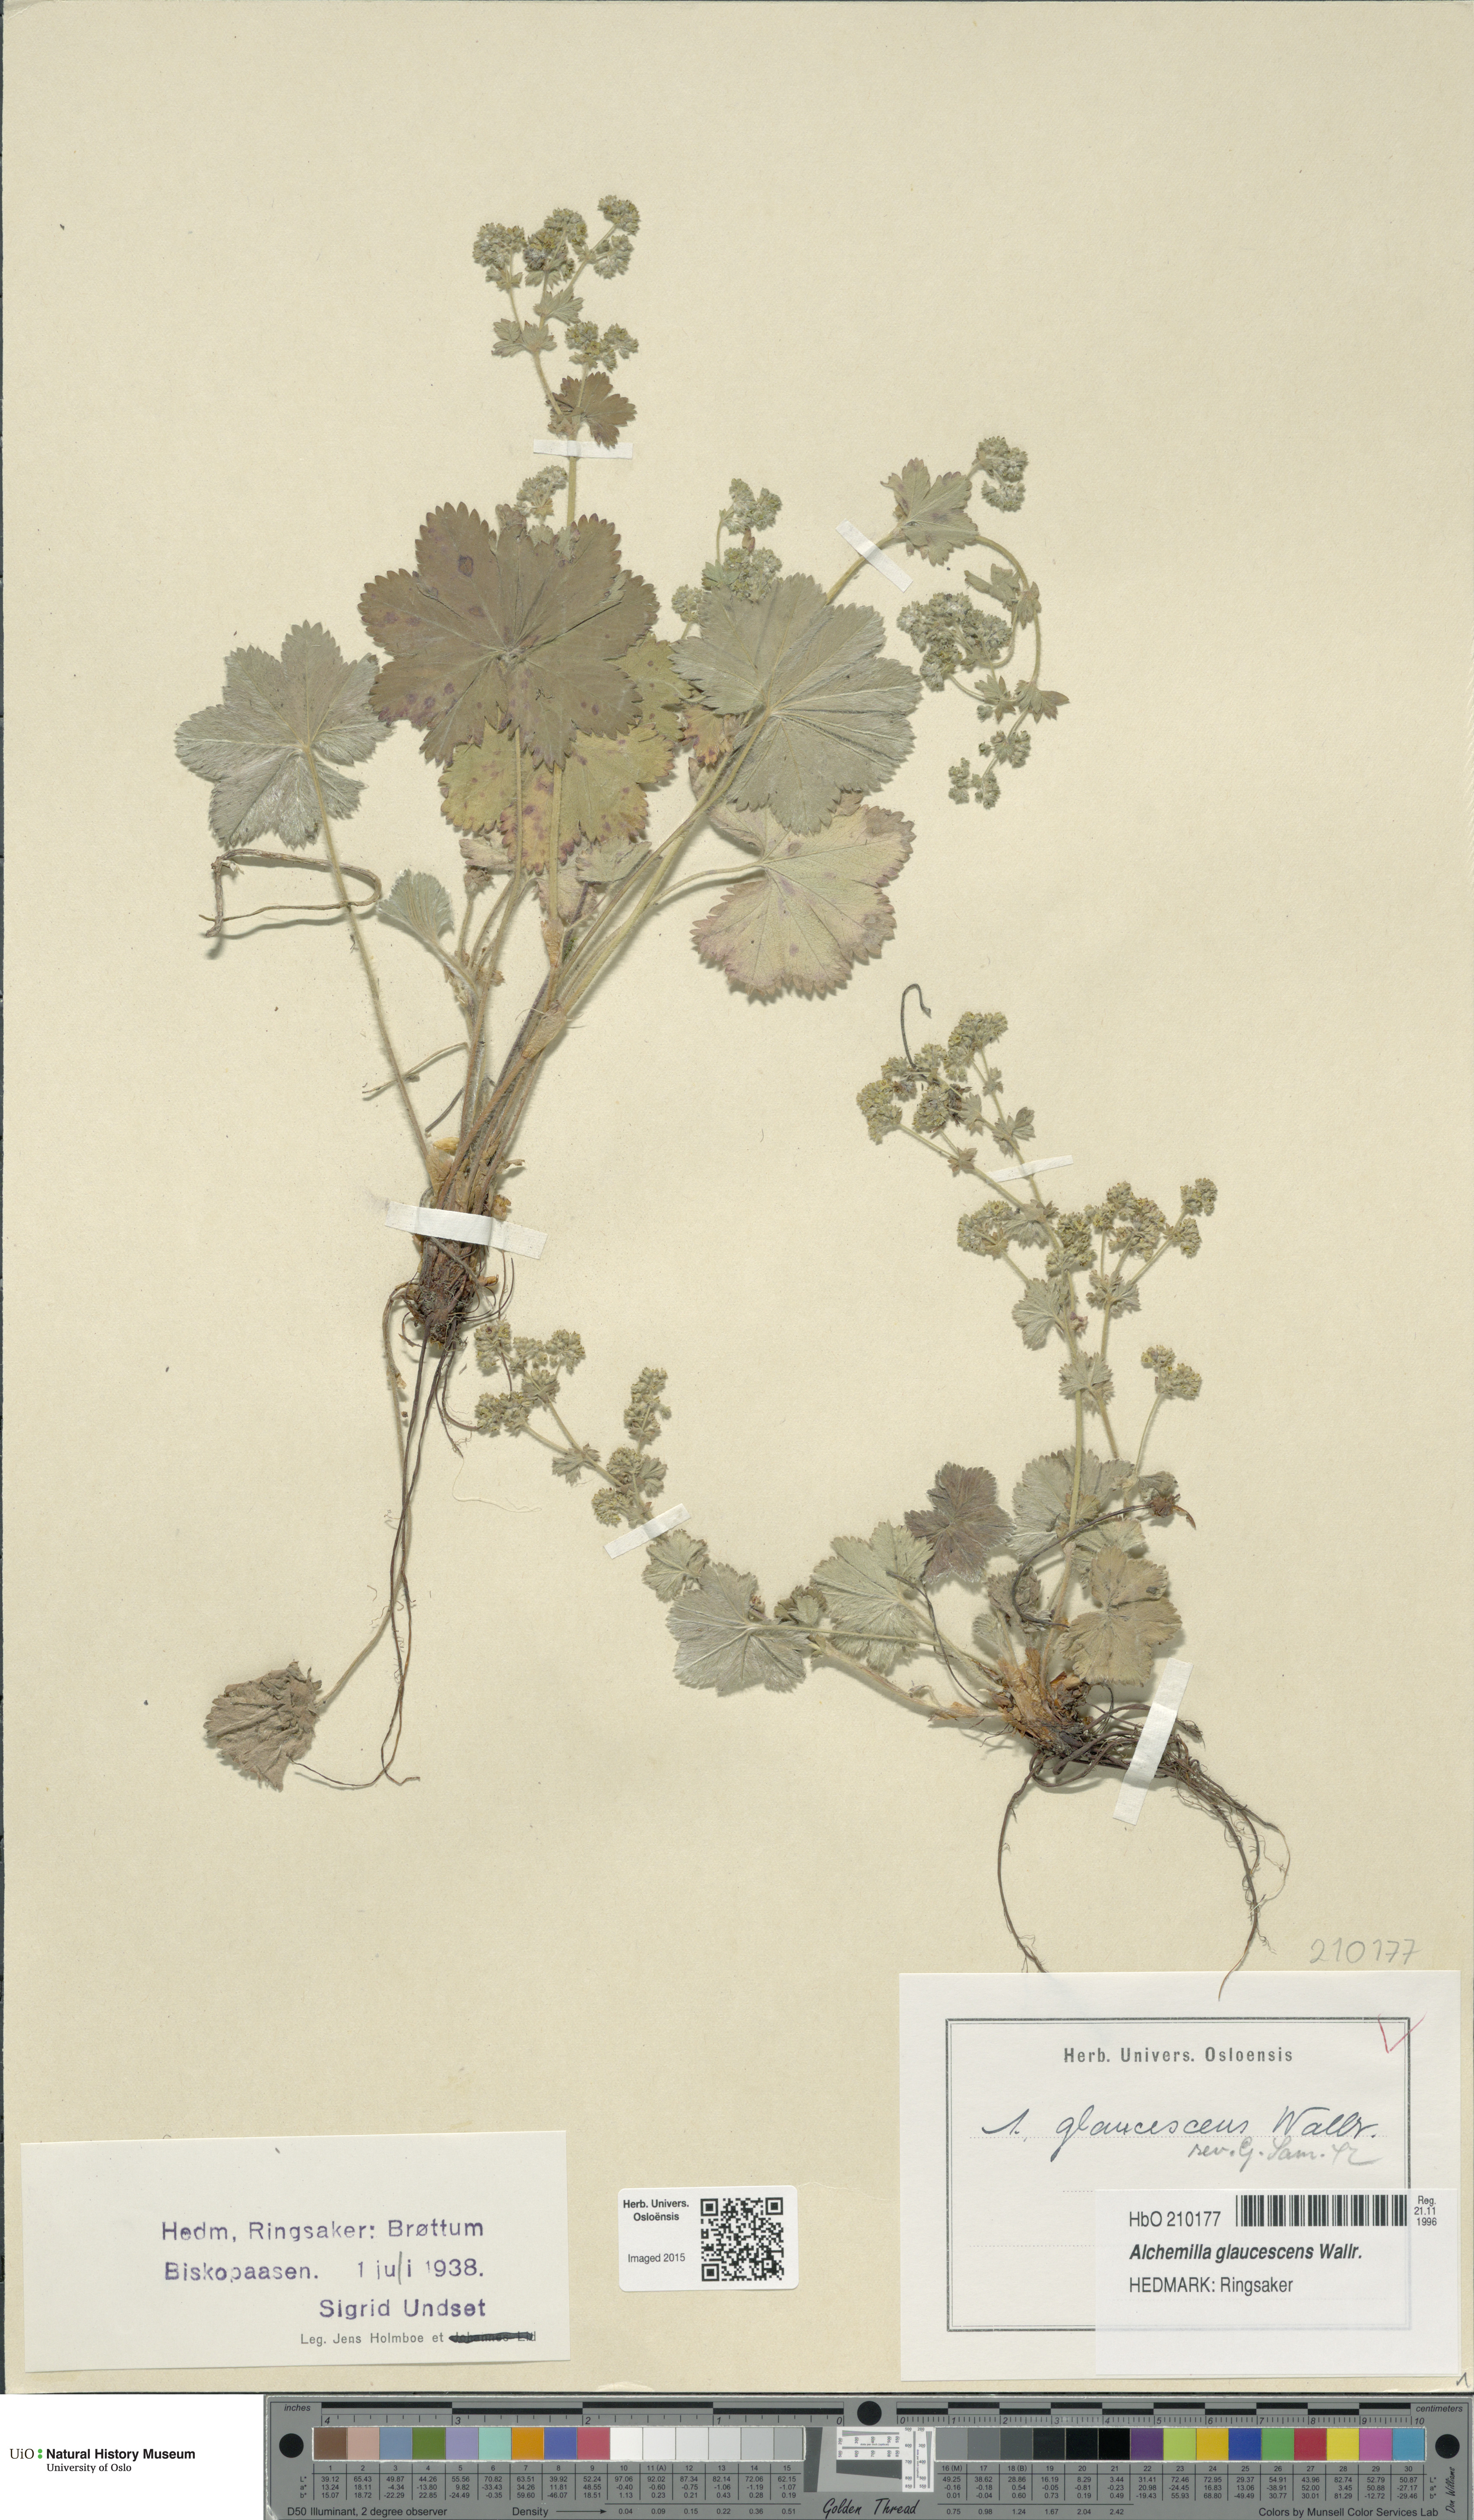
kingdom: Plantae
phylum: Tracheophyta
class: Magnoliopsida
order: Rosales
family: Rosaceae
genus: Alchemilla
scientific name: Alchemilla glaucescens
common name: Silky lady's mantle
